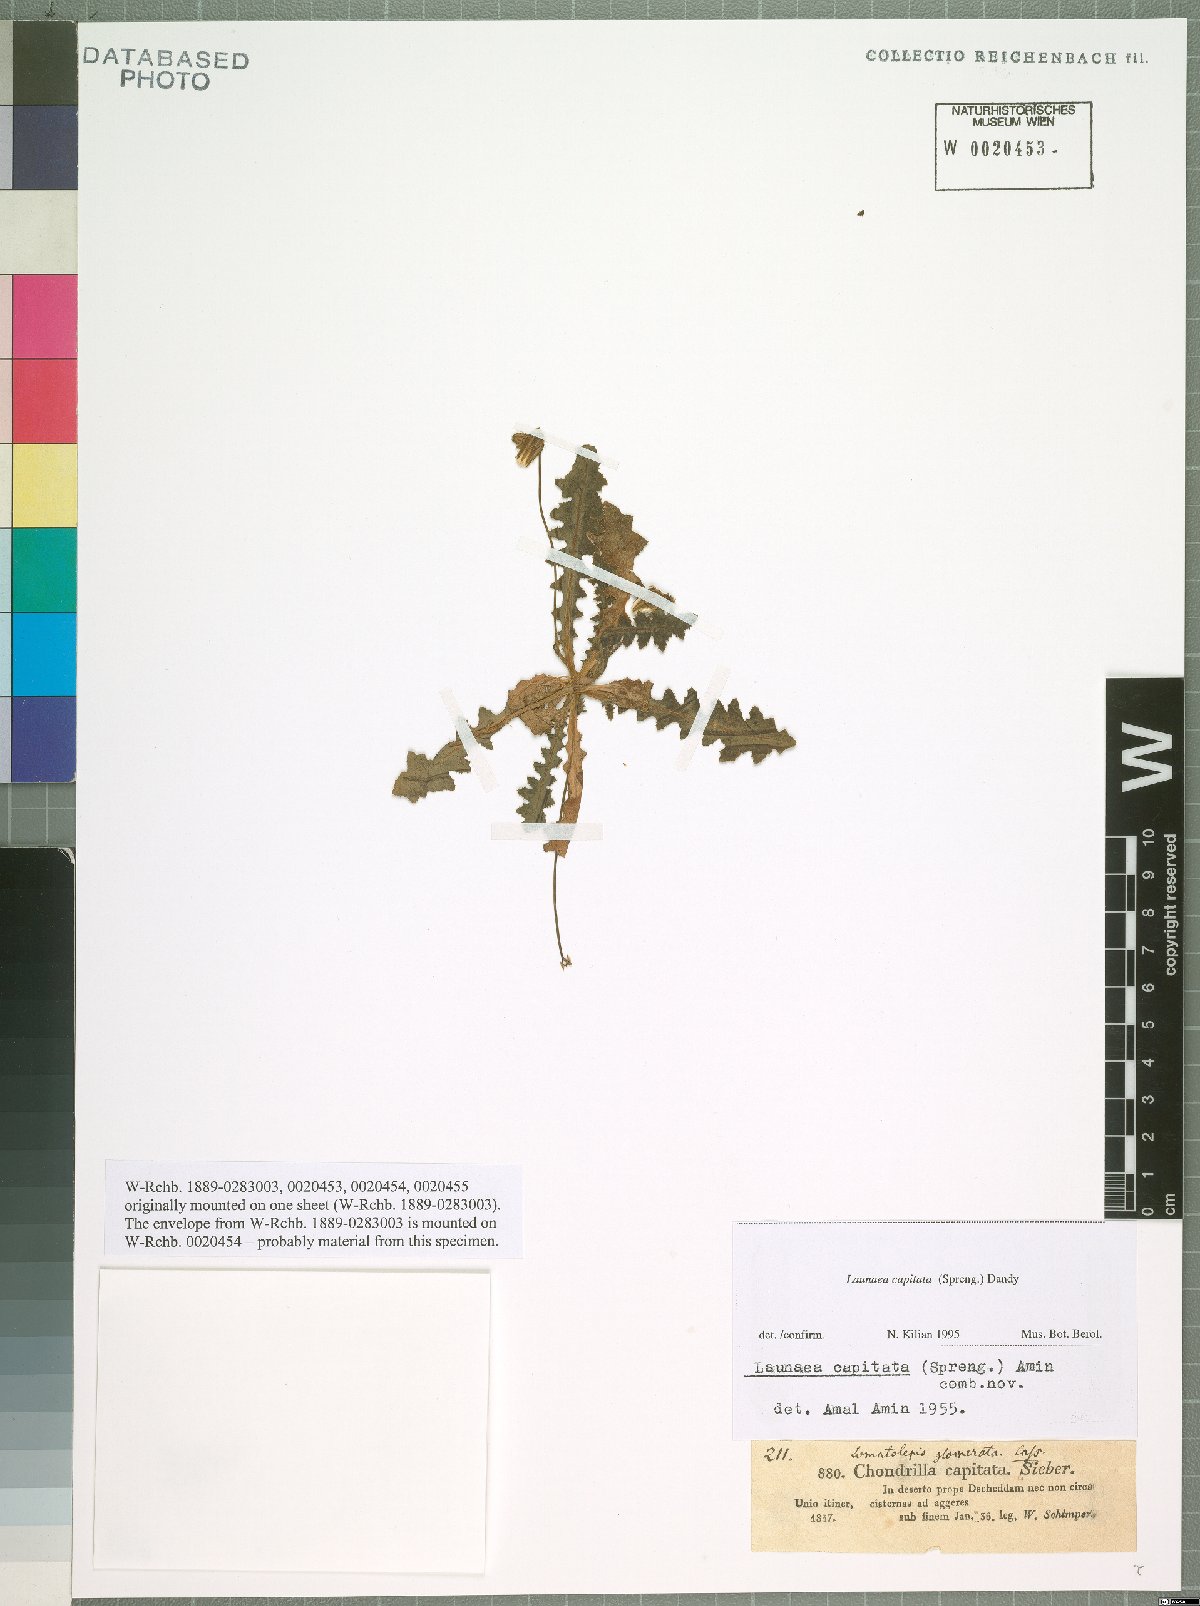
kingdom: Plantae
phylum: Tracheophyta
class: Magnoliopsida
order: Asterales
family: Asteraceae
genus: Launaea
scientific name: Launaea capitata
